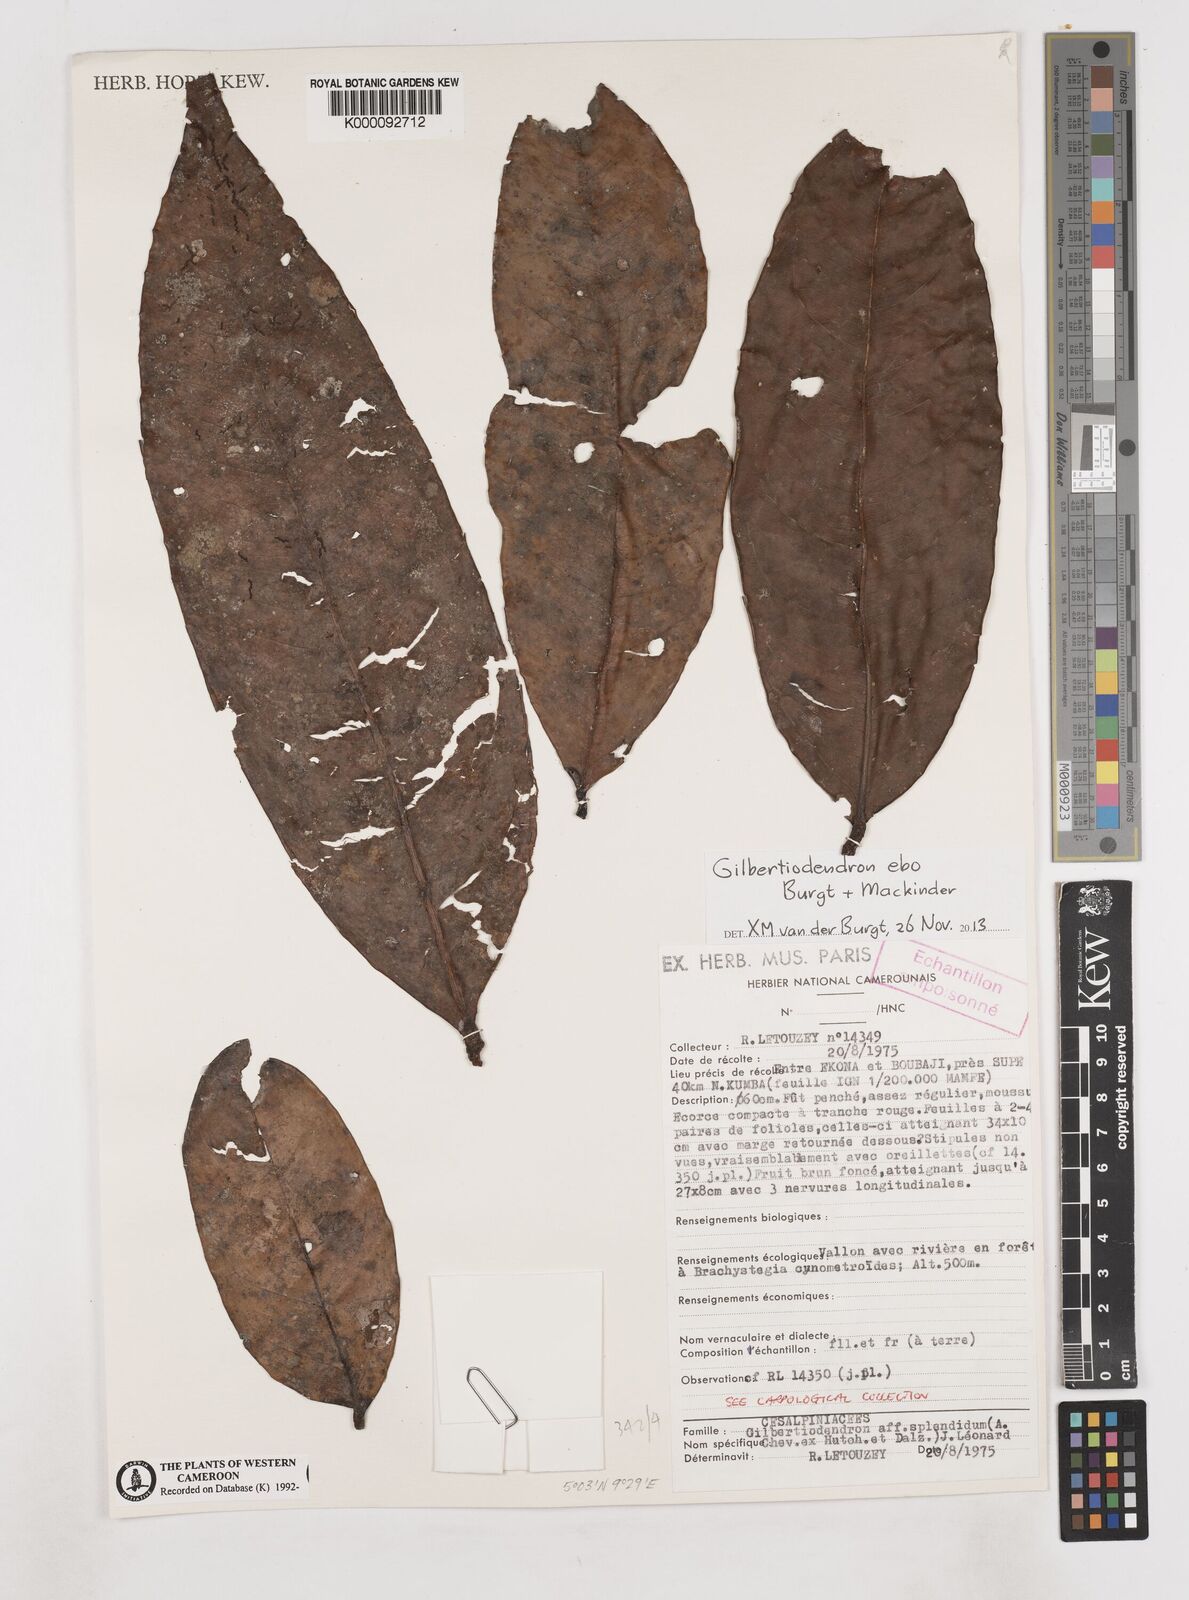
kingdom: Plantae
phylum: Tracheophyta
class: Magnoliopsida
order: Fabales
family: Fabaceae
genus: Gilbertiodendron
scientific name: Gilbertiodendron ebo
